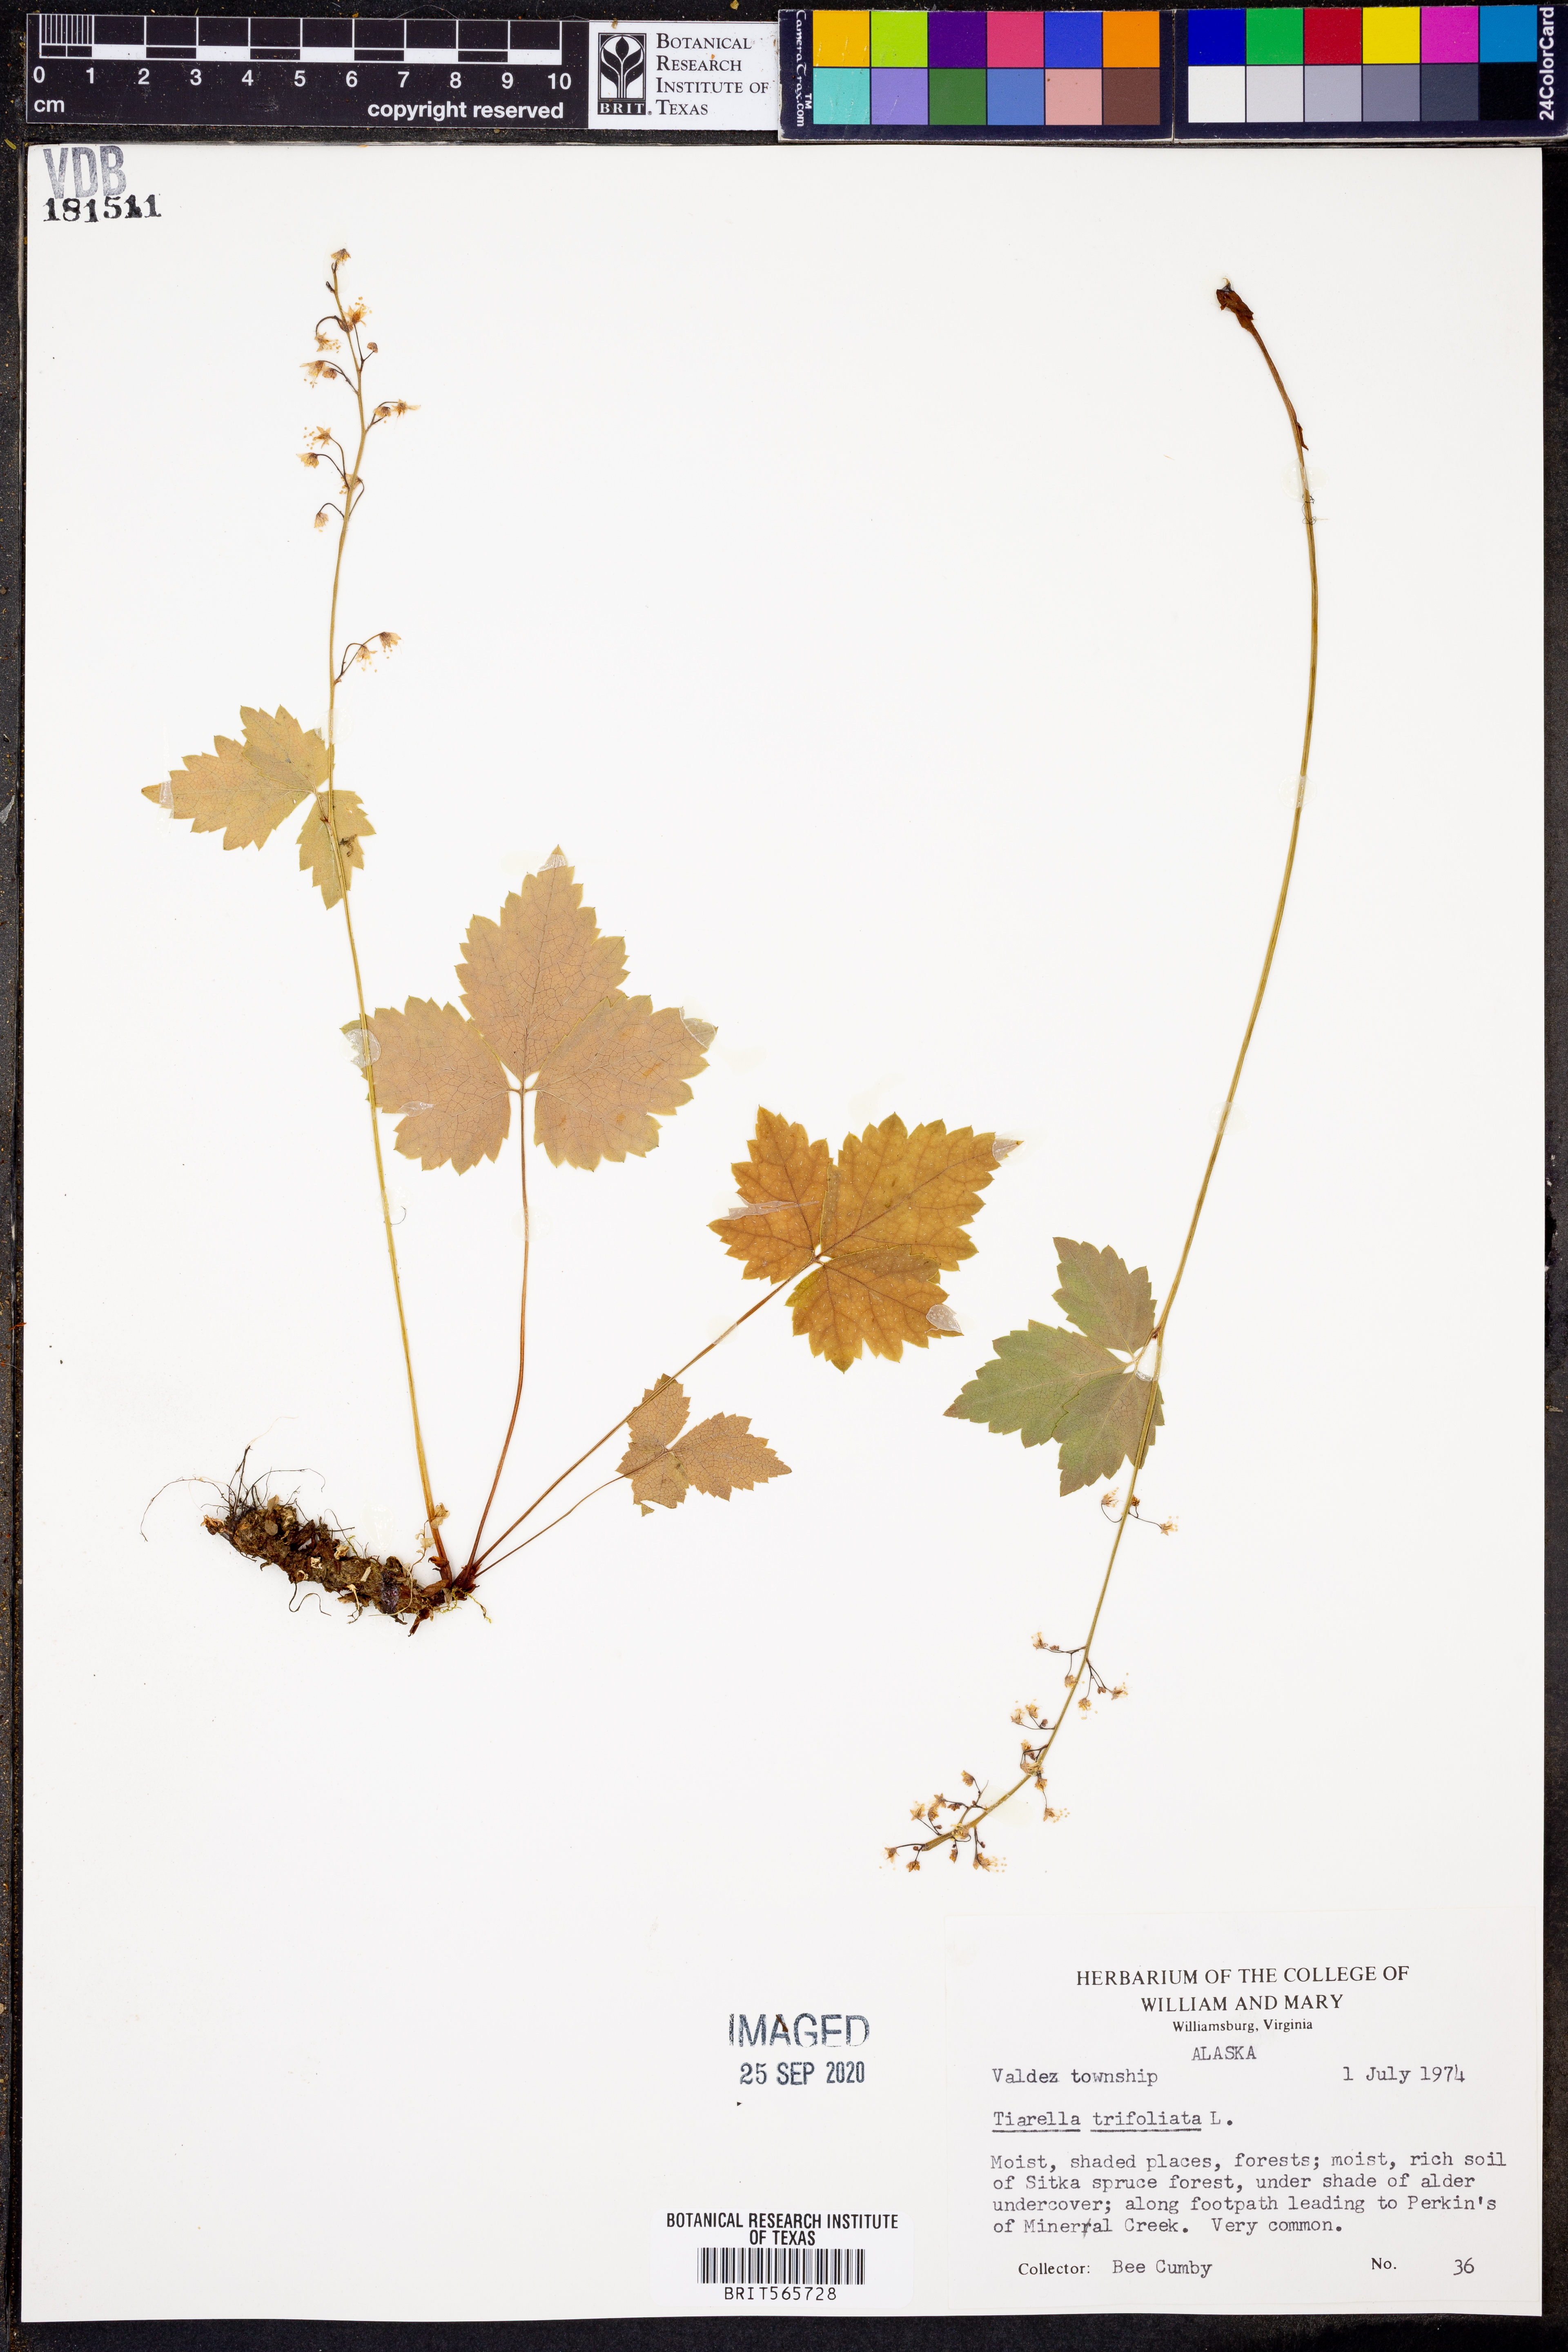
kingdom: Plantae
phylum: Tracheophyta
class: Magnoliopsida
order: Saxifragales
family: Saxifragaceae
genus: Tiarella
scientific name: Tiarella trifoliata
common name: Sugar-scoop
